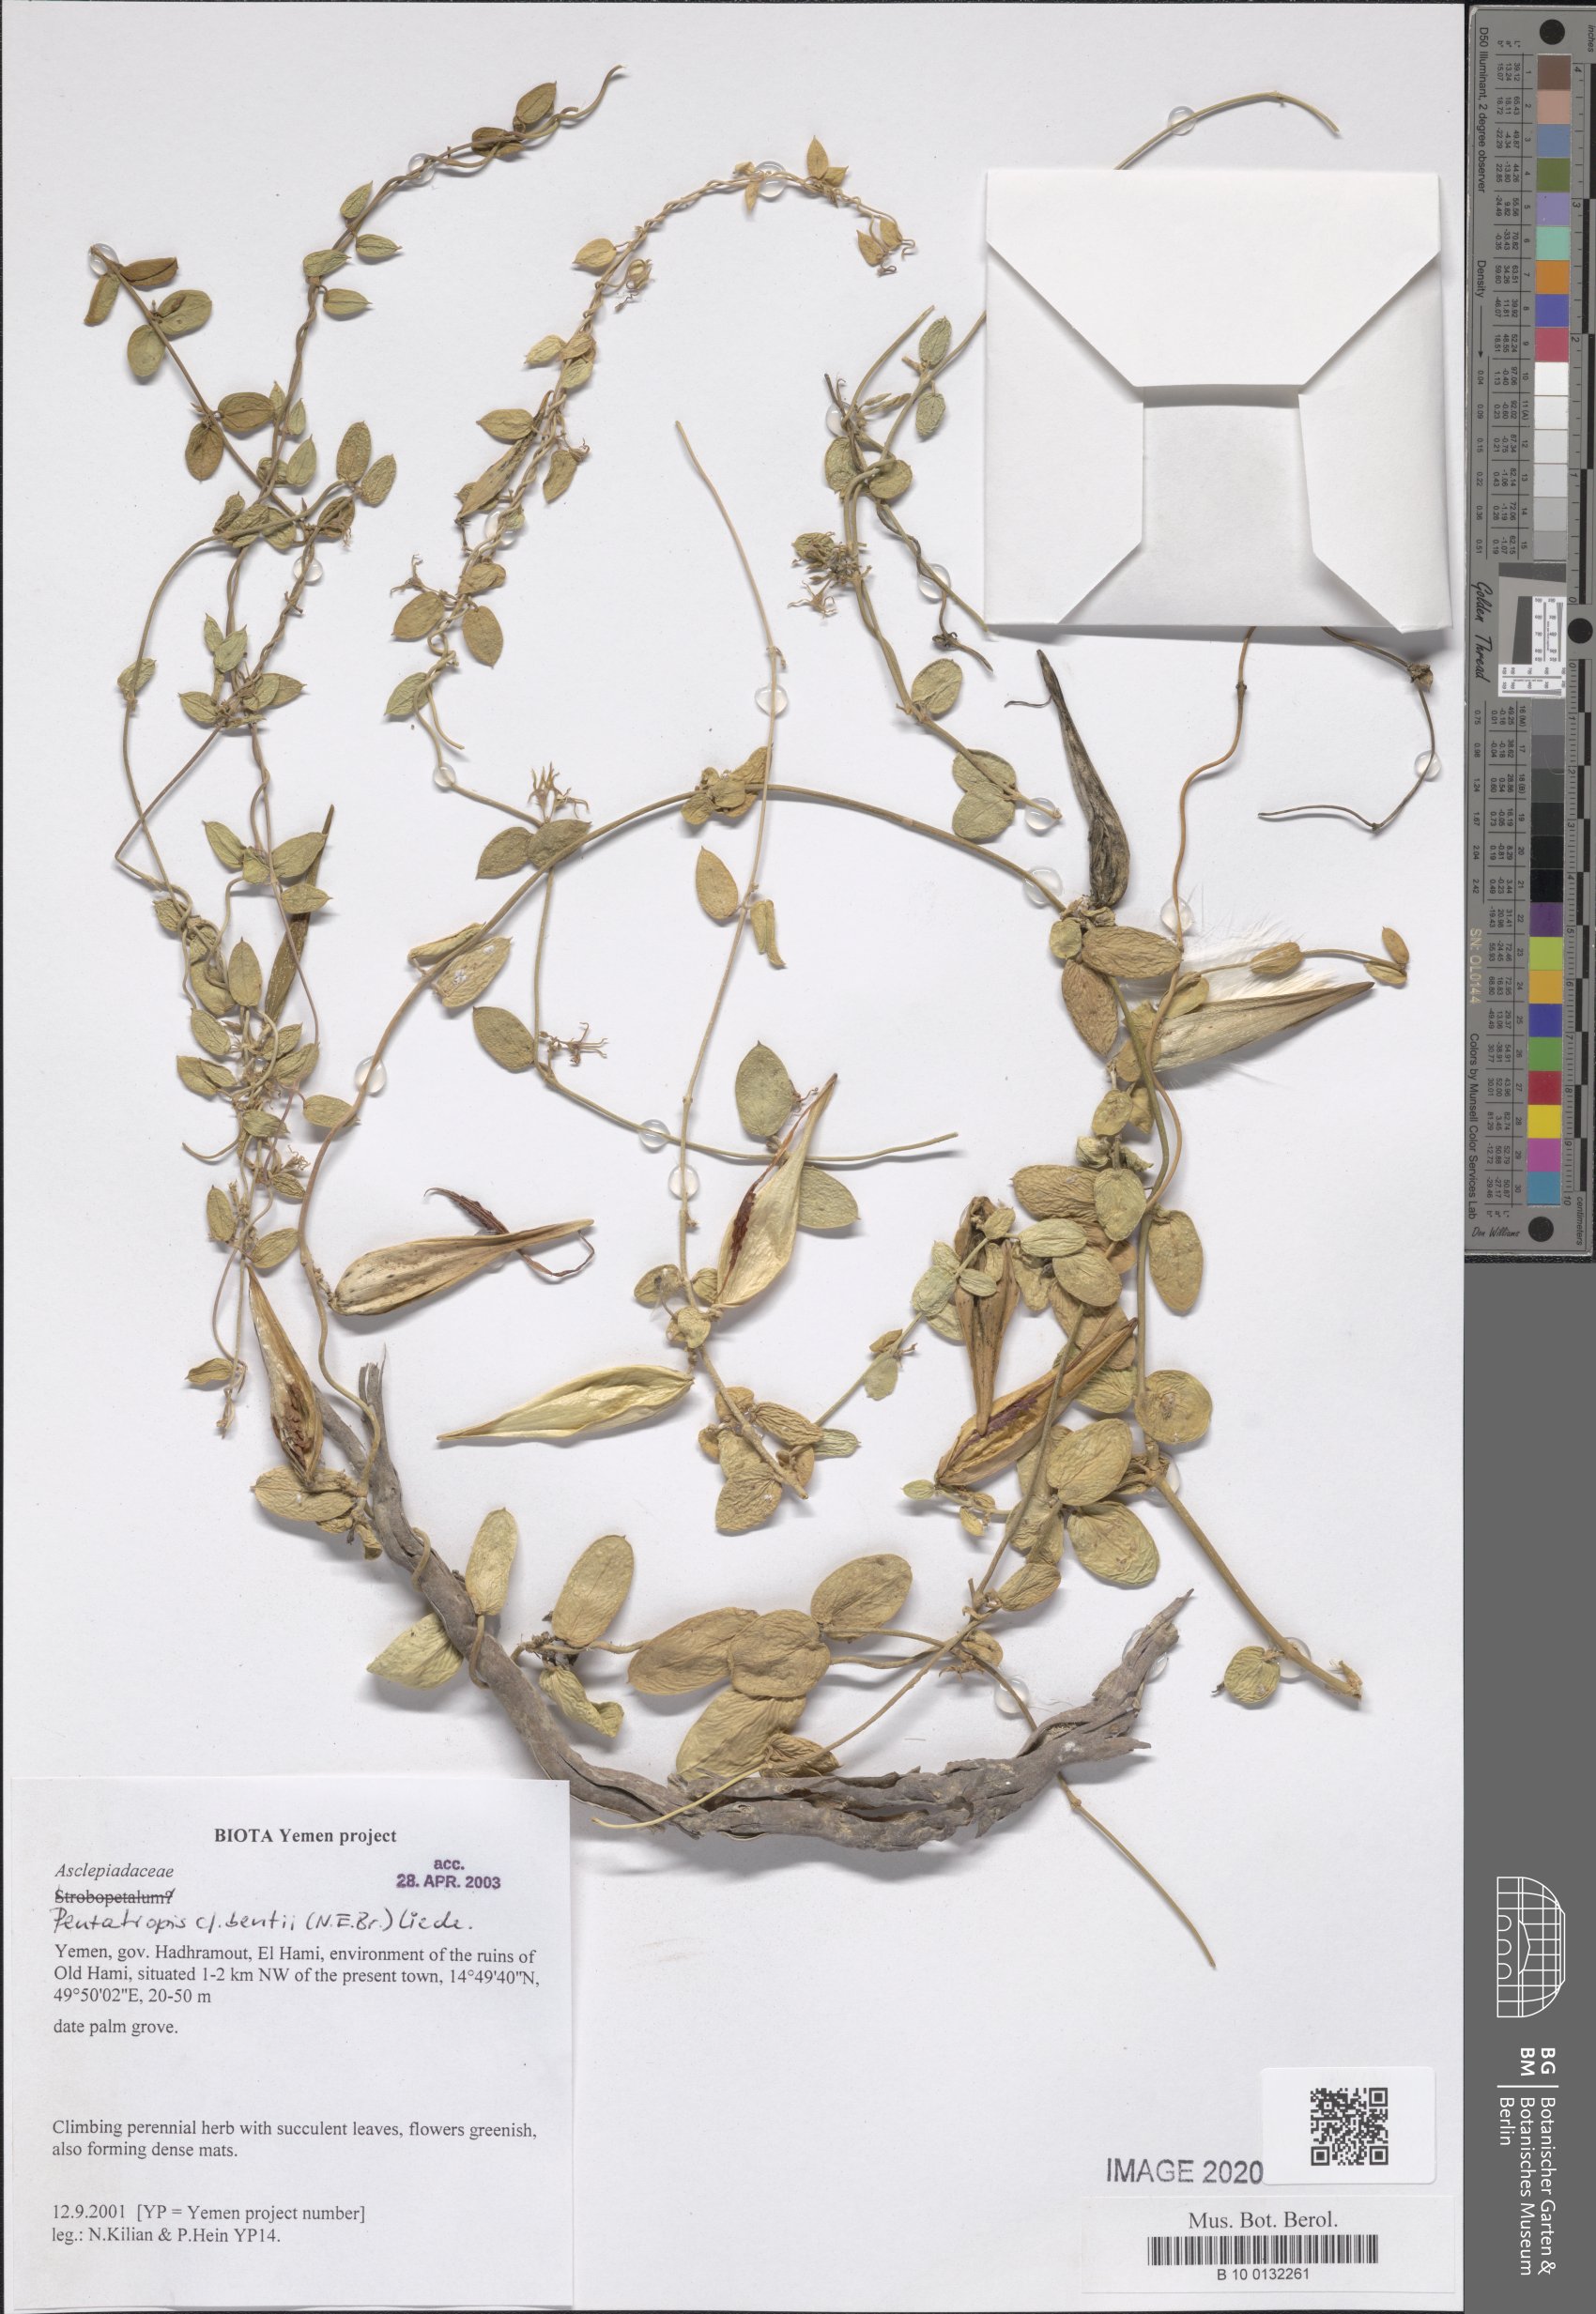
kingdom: Plantae
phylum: Tracheophyta
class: Magnoliopsida
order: Gentianales
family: Apocynaceae
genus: Pentatropis
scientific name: Pentatropis bentii
